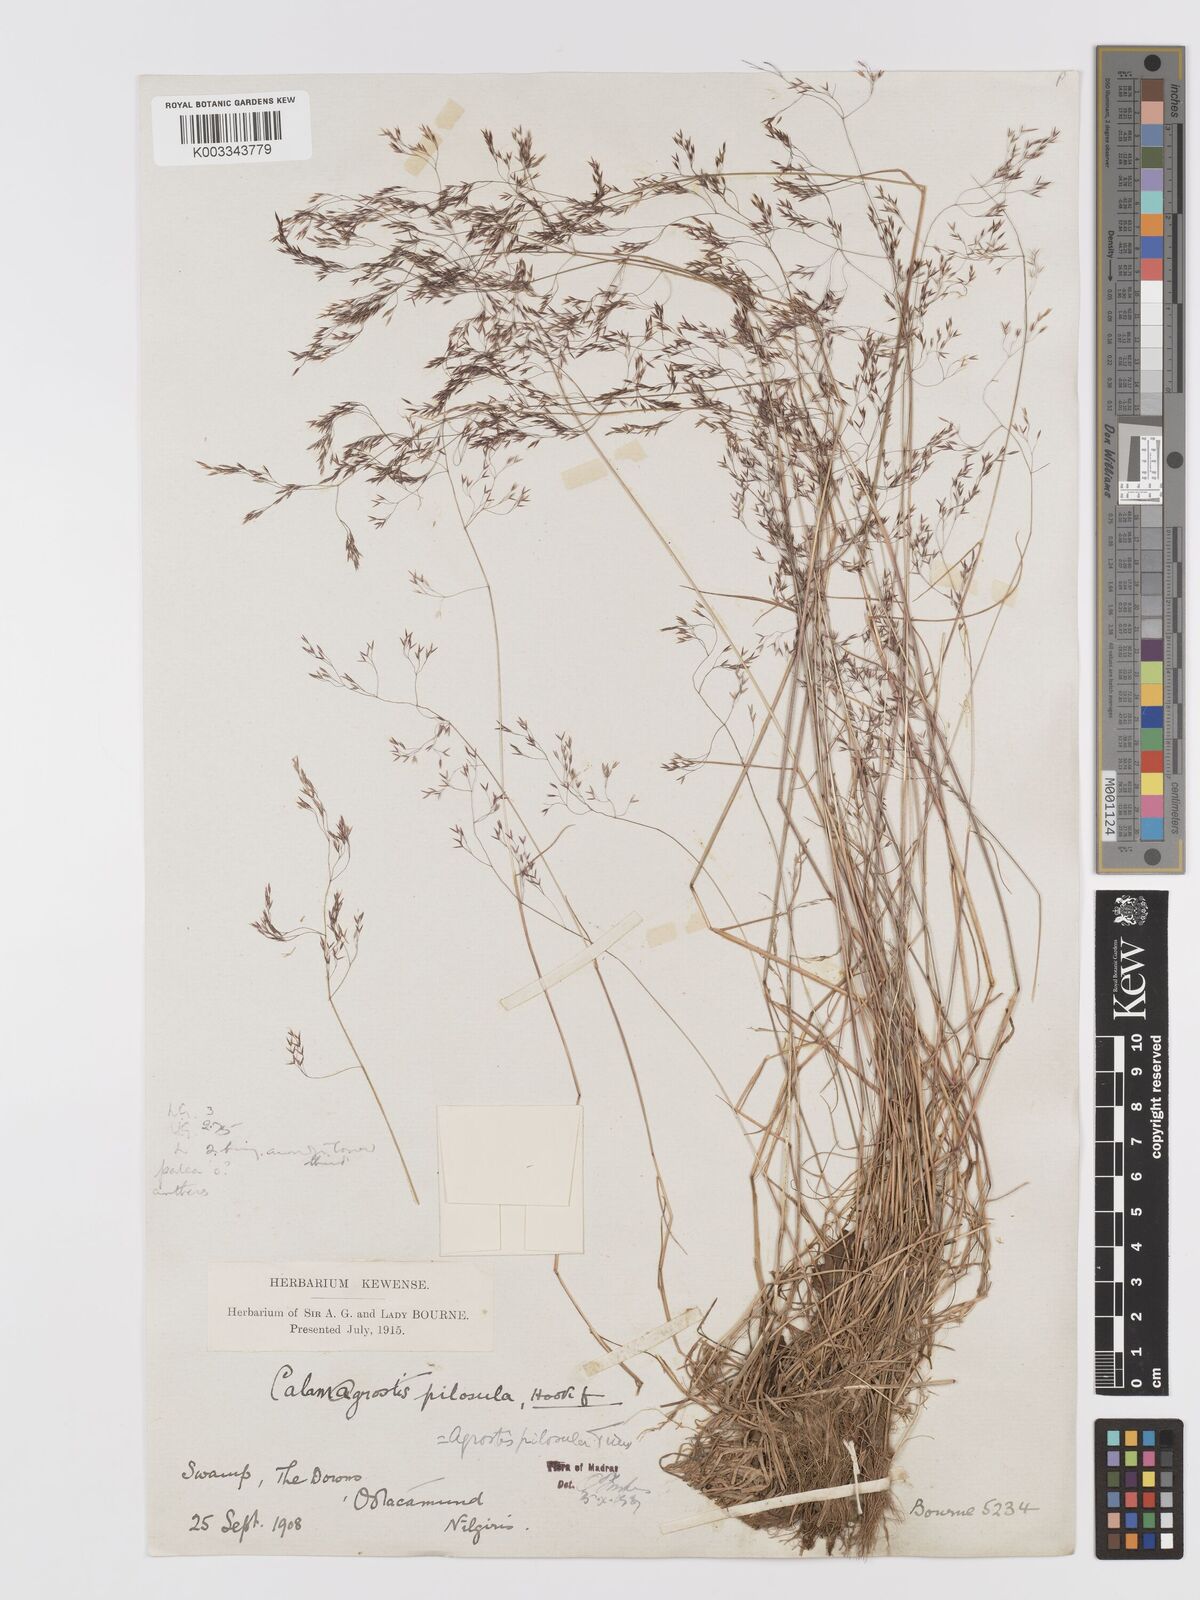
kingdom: Plantae
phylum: Tracheophyta
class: Liliopsida
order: Poales
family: Poaceae
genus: Agrostis
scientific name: Agrostis pilosula
